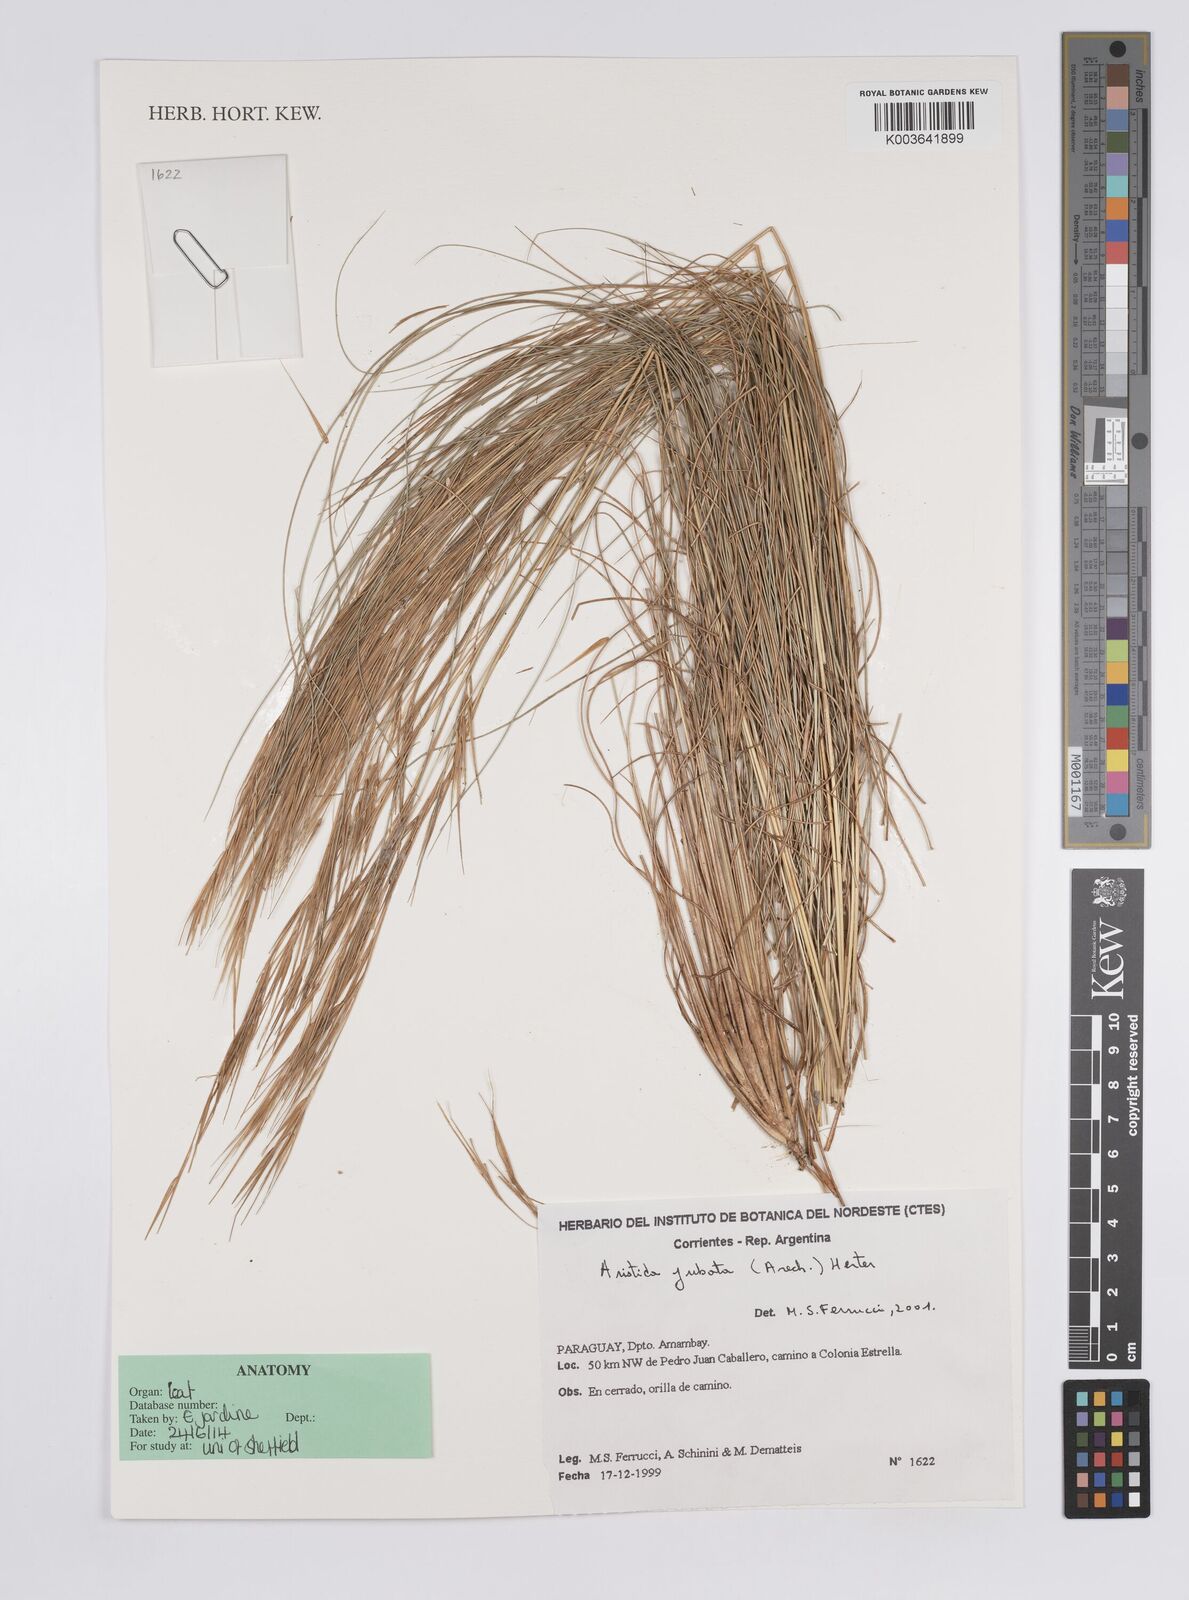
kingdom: Plantae
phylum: Tracheophyta
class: Liliopsida
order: Poales
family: Poaceae
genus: Aristida
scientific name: Aristida jubata
